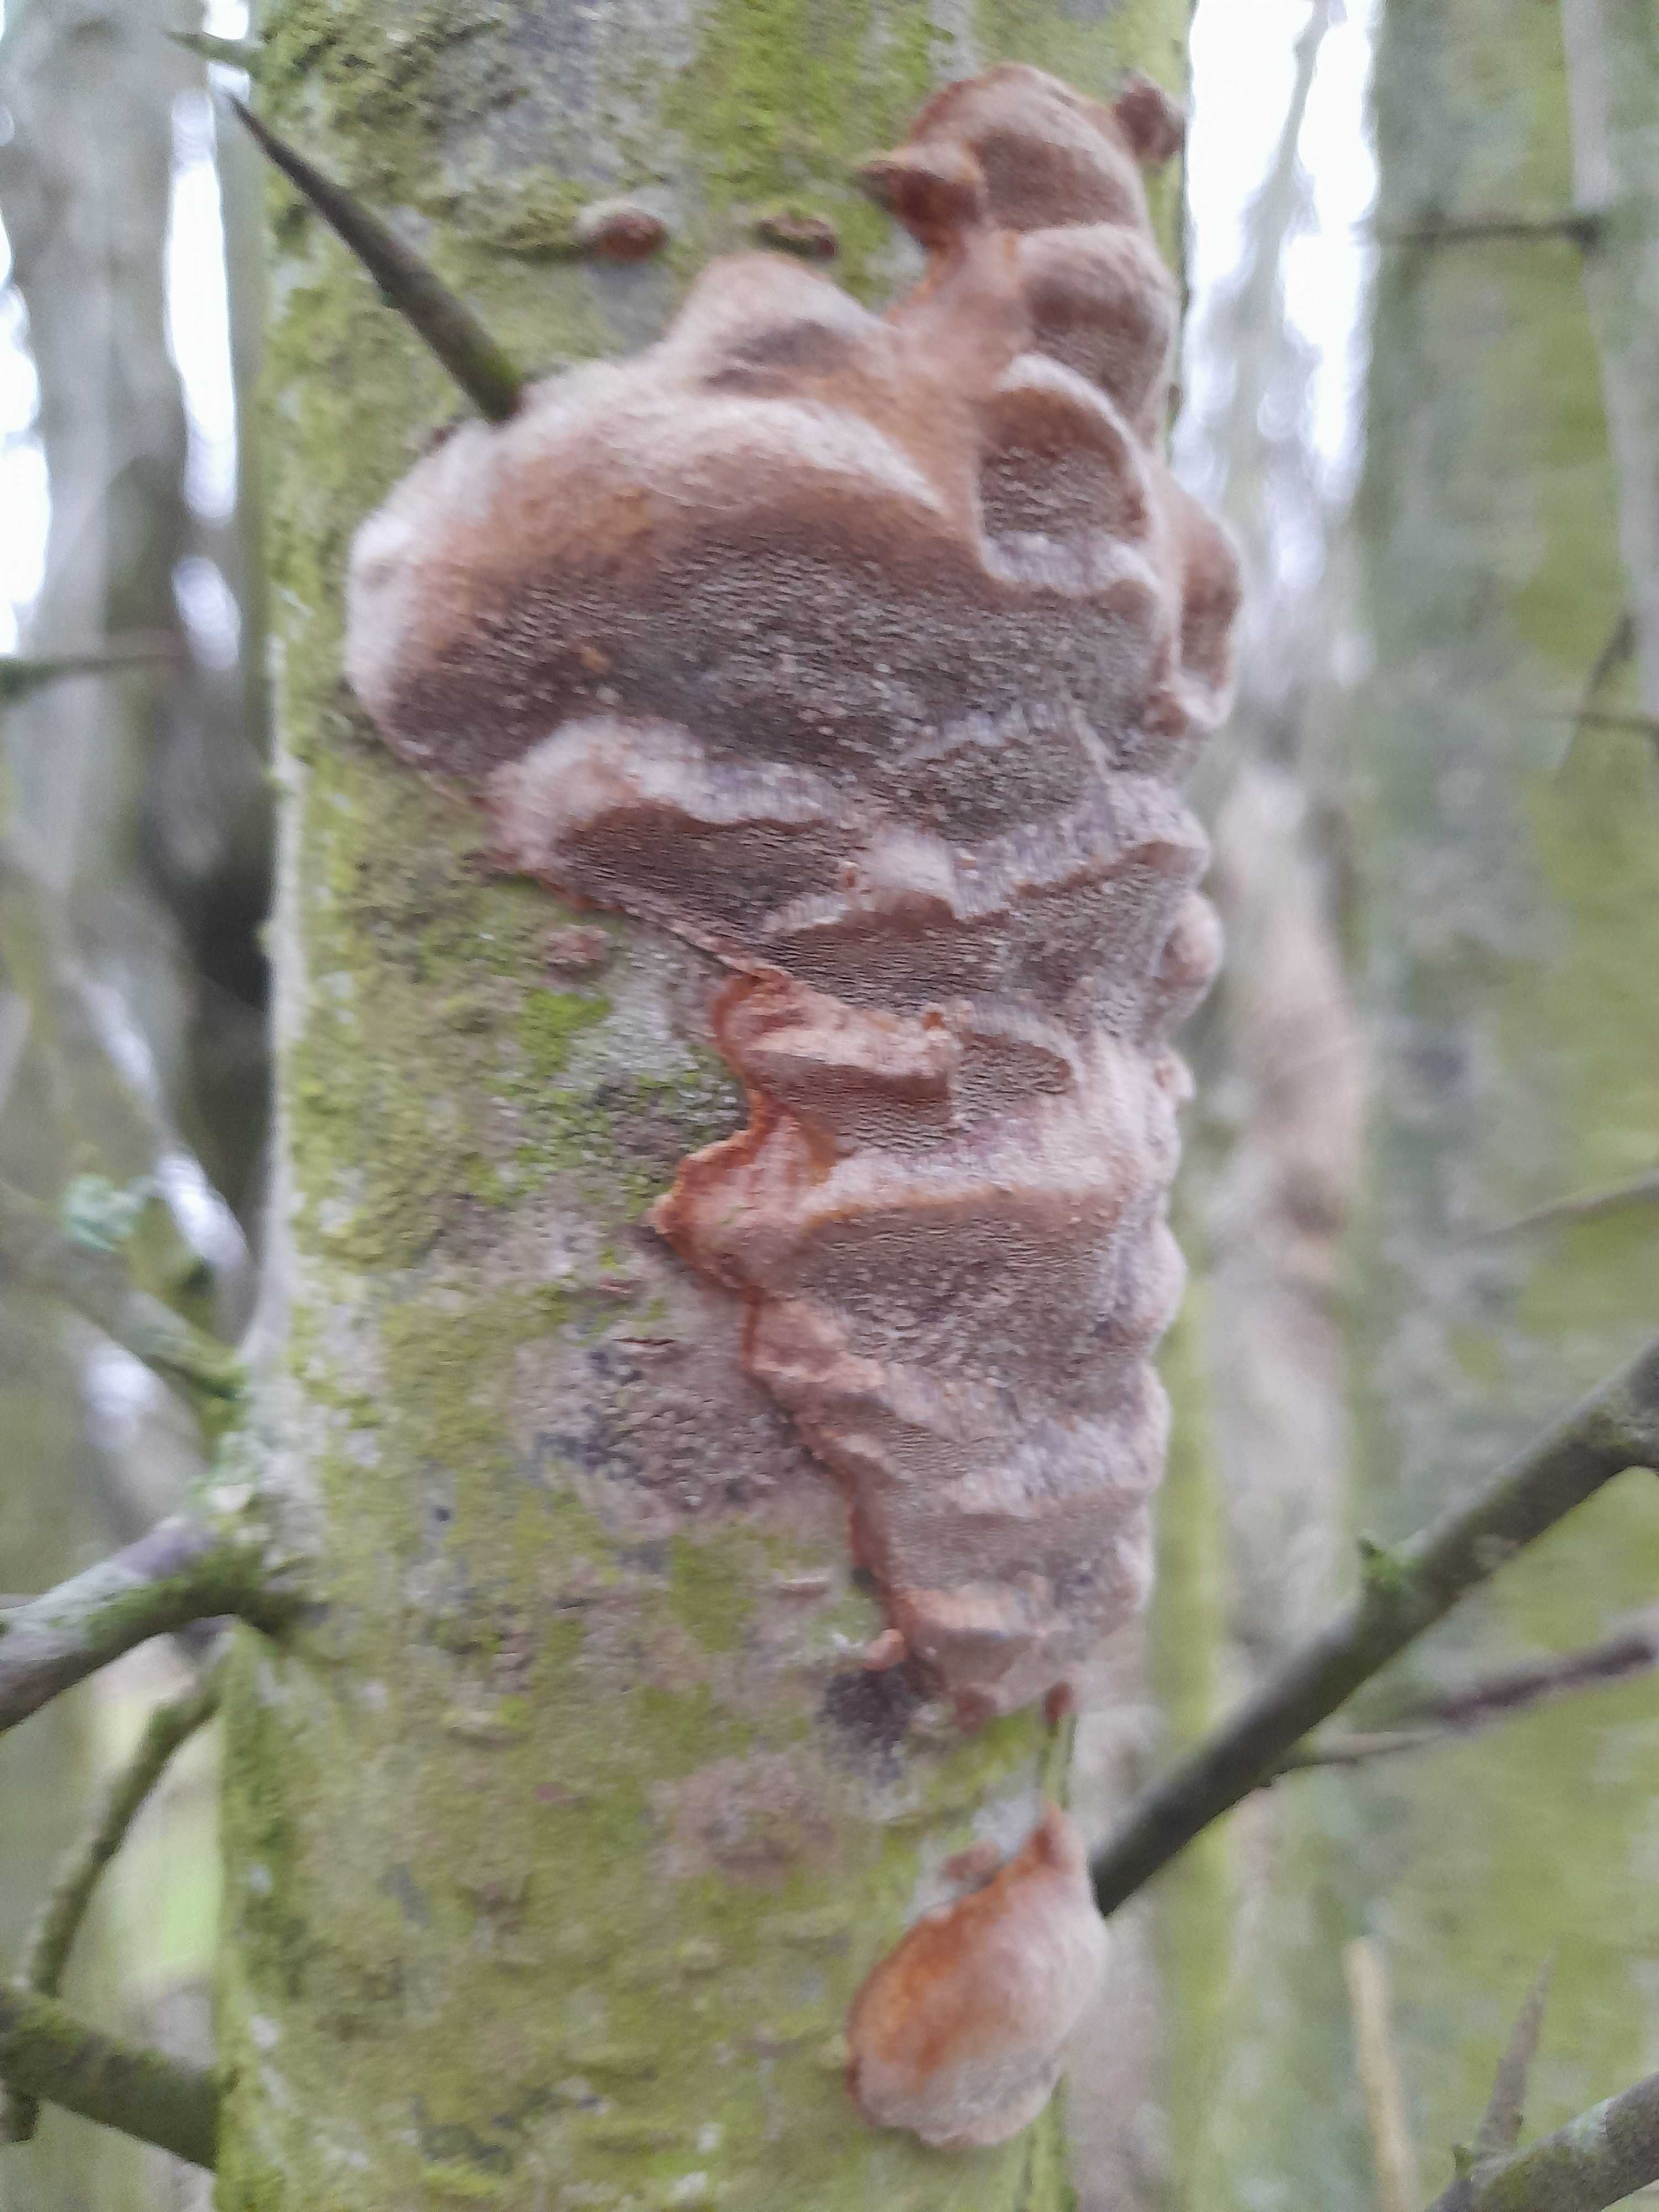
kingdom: Fungi
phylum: Basidiomycota
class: Agaricomycetes
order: Hymenochaetales
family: Hymenochaetaceae
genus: Phellinus
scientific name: Phellinus pomaceus
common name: blomme-ildporesvamp
